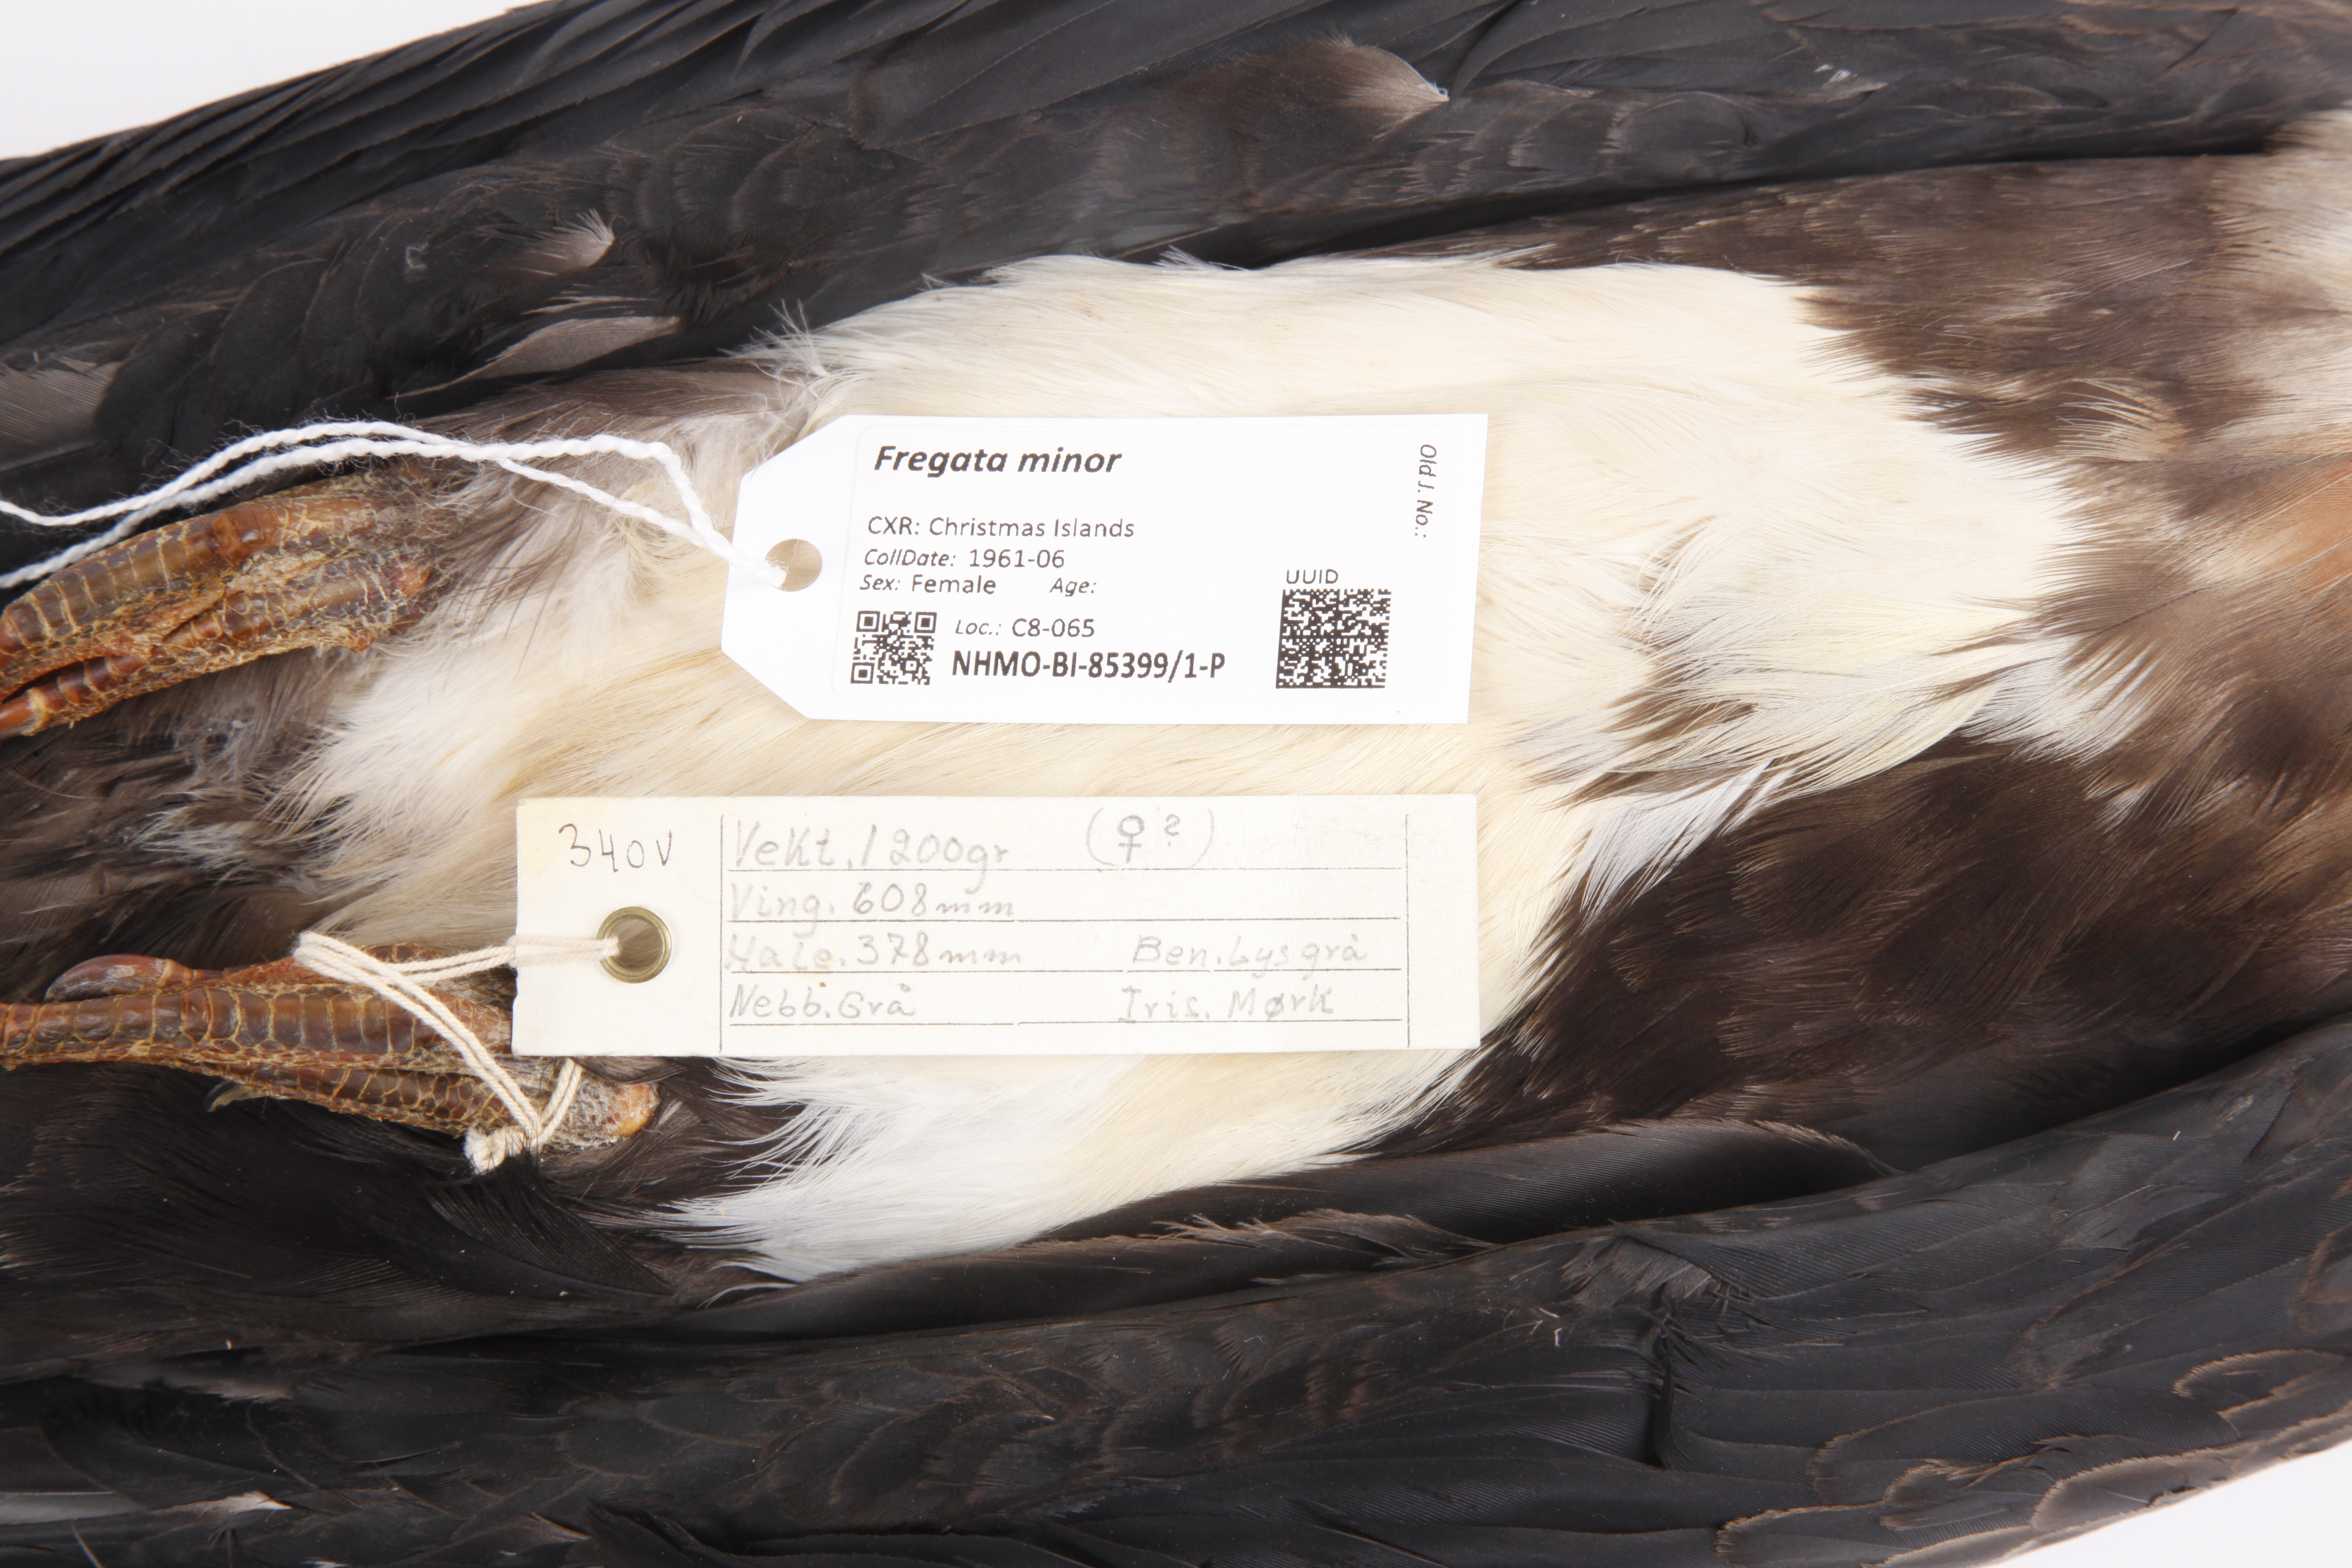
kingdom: Animalia
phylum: Chordata
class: Aves
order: Suliformes
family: Fregatidae
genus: Fregata
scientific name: Fregata minor
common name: Great frigatebird
